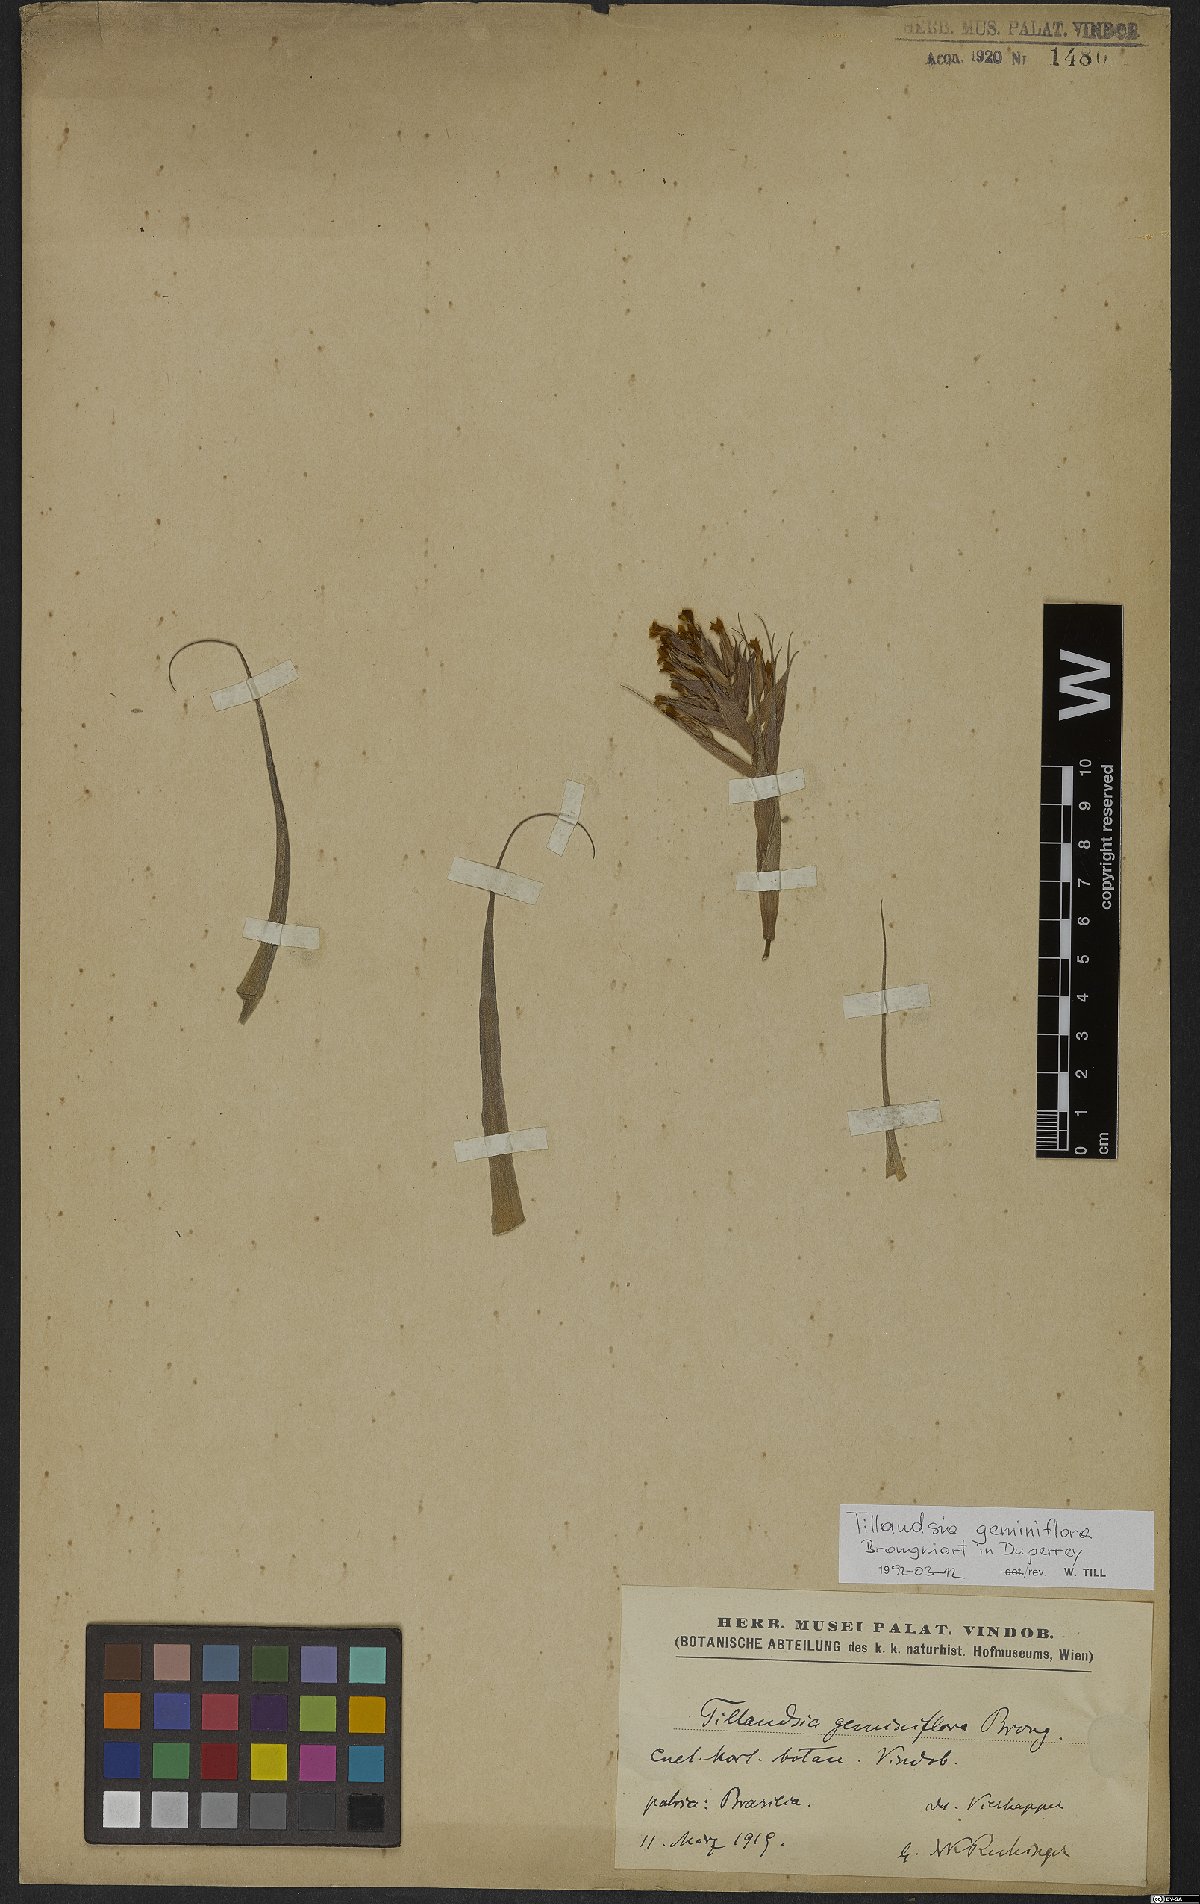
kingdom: Plantae
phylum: Tracheophyta
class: Liliopsida
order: Poales
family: Bromeliaceae
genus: Tillandsia
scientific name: Tillandsia geminiflora
